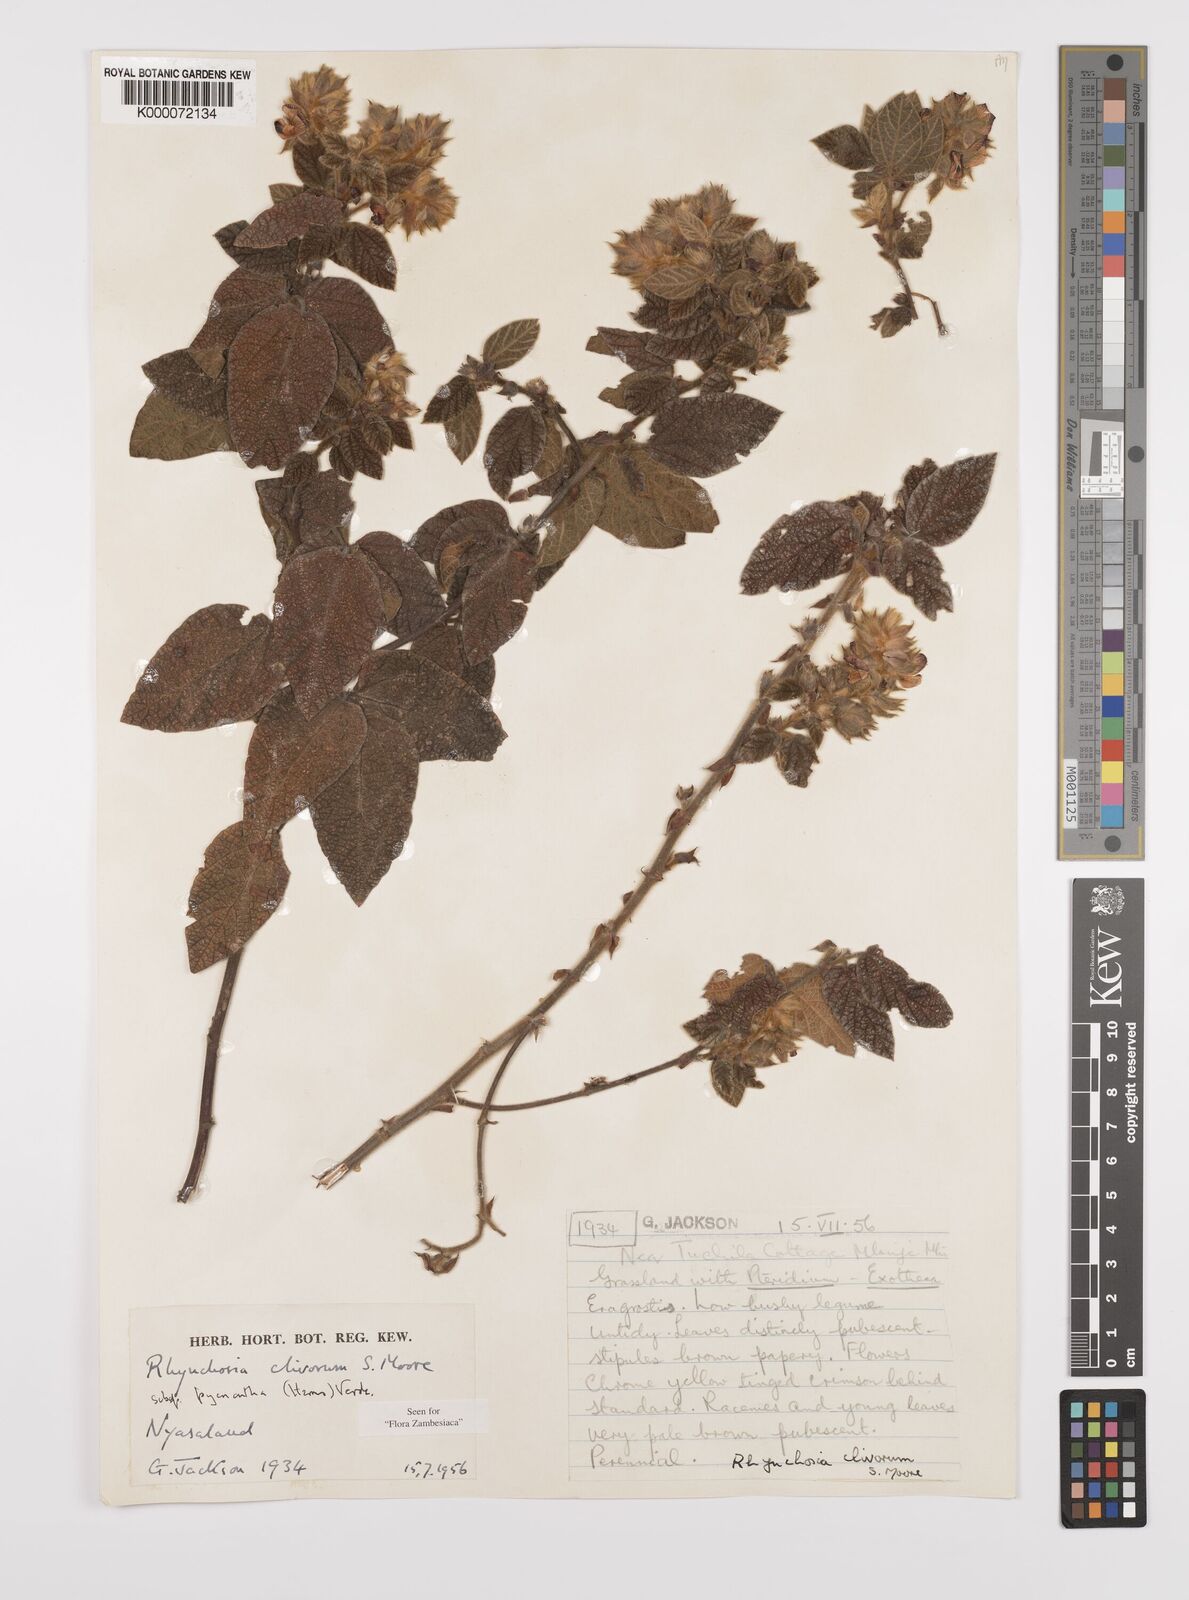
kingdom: Plantae
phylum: Tracheophyta
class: Magnoliopsida
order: Fabales
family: Fabaceae
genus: Rhynchosia
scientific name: Rhynchosia clivorum
